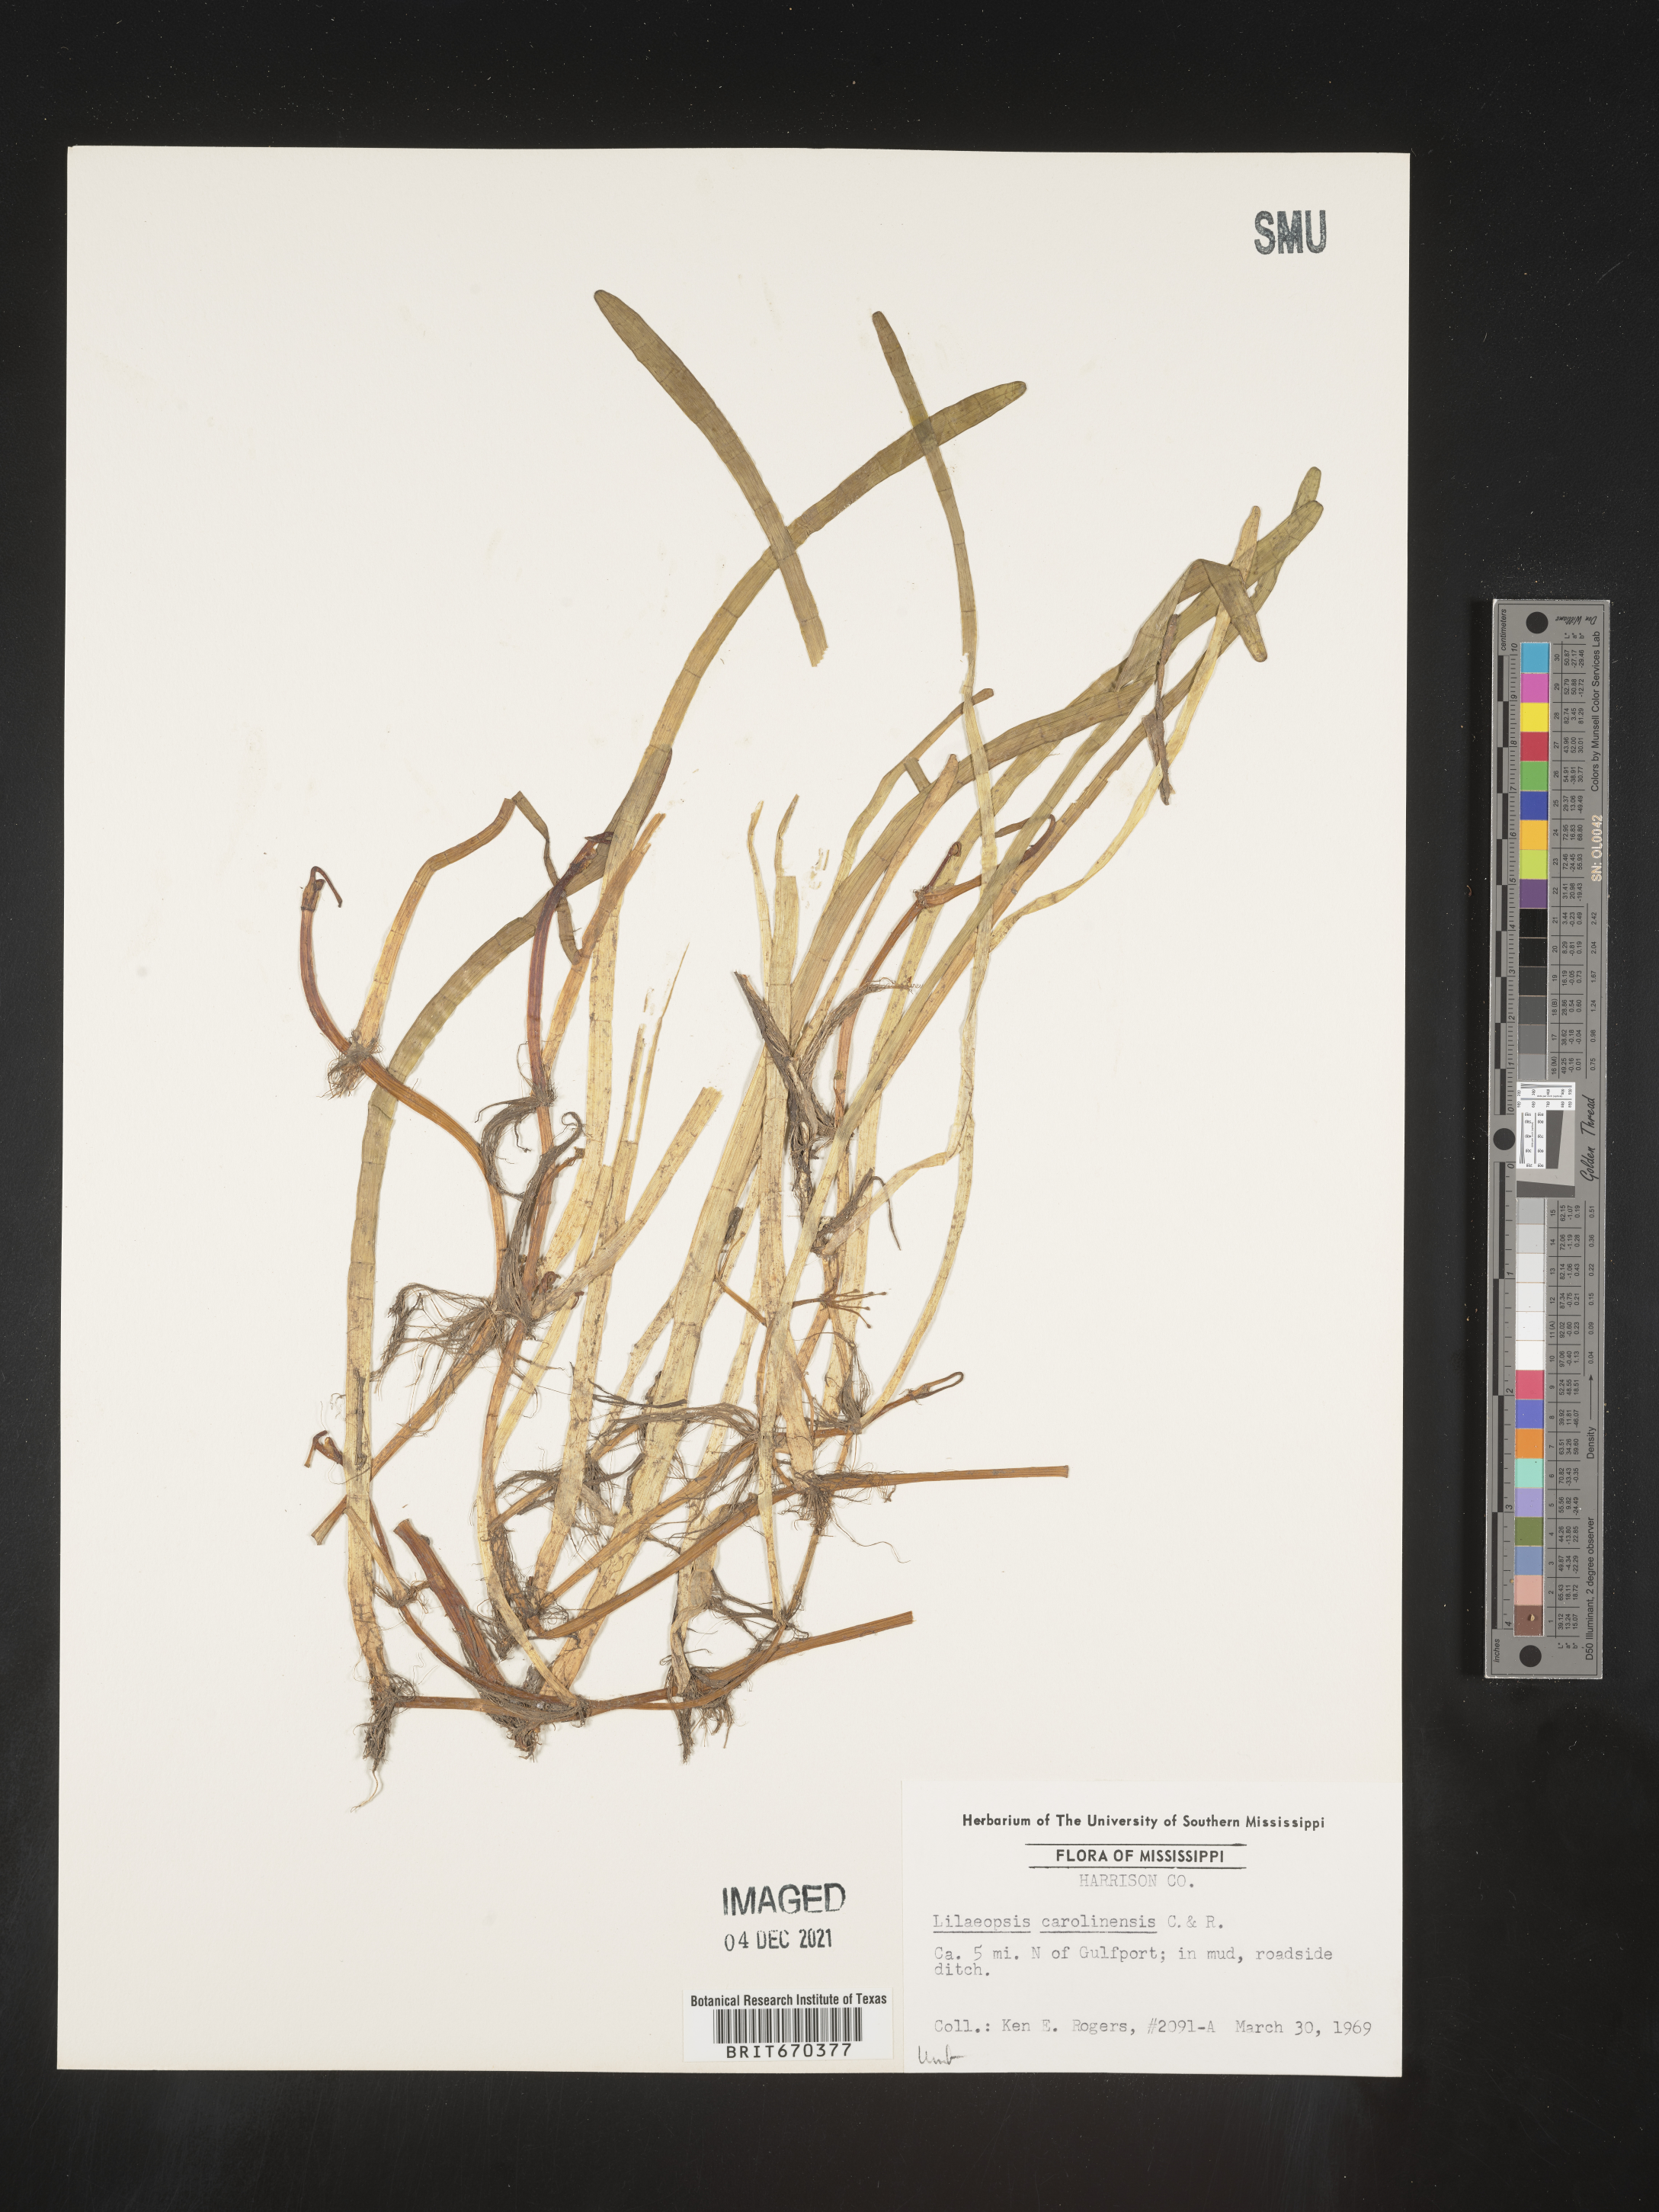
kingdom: Plantae
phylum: Tracheophyta
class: Magnoliopsida
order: Apiales
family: Apiaceae
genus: Lilaeopsis
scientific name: Lilaeopsis
